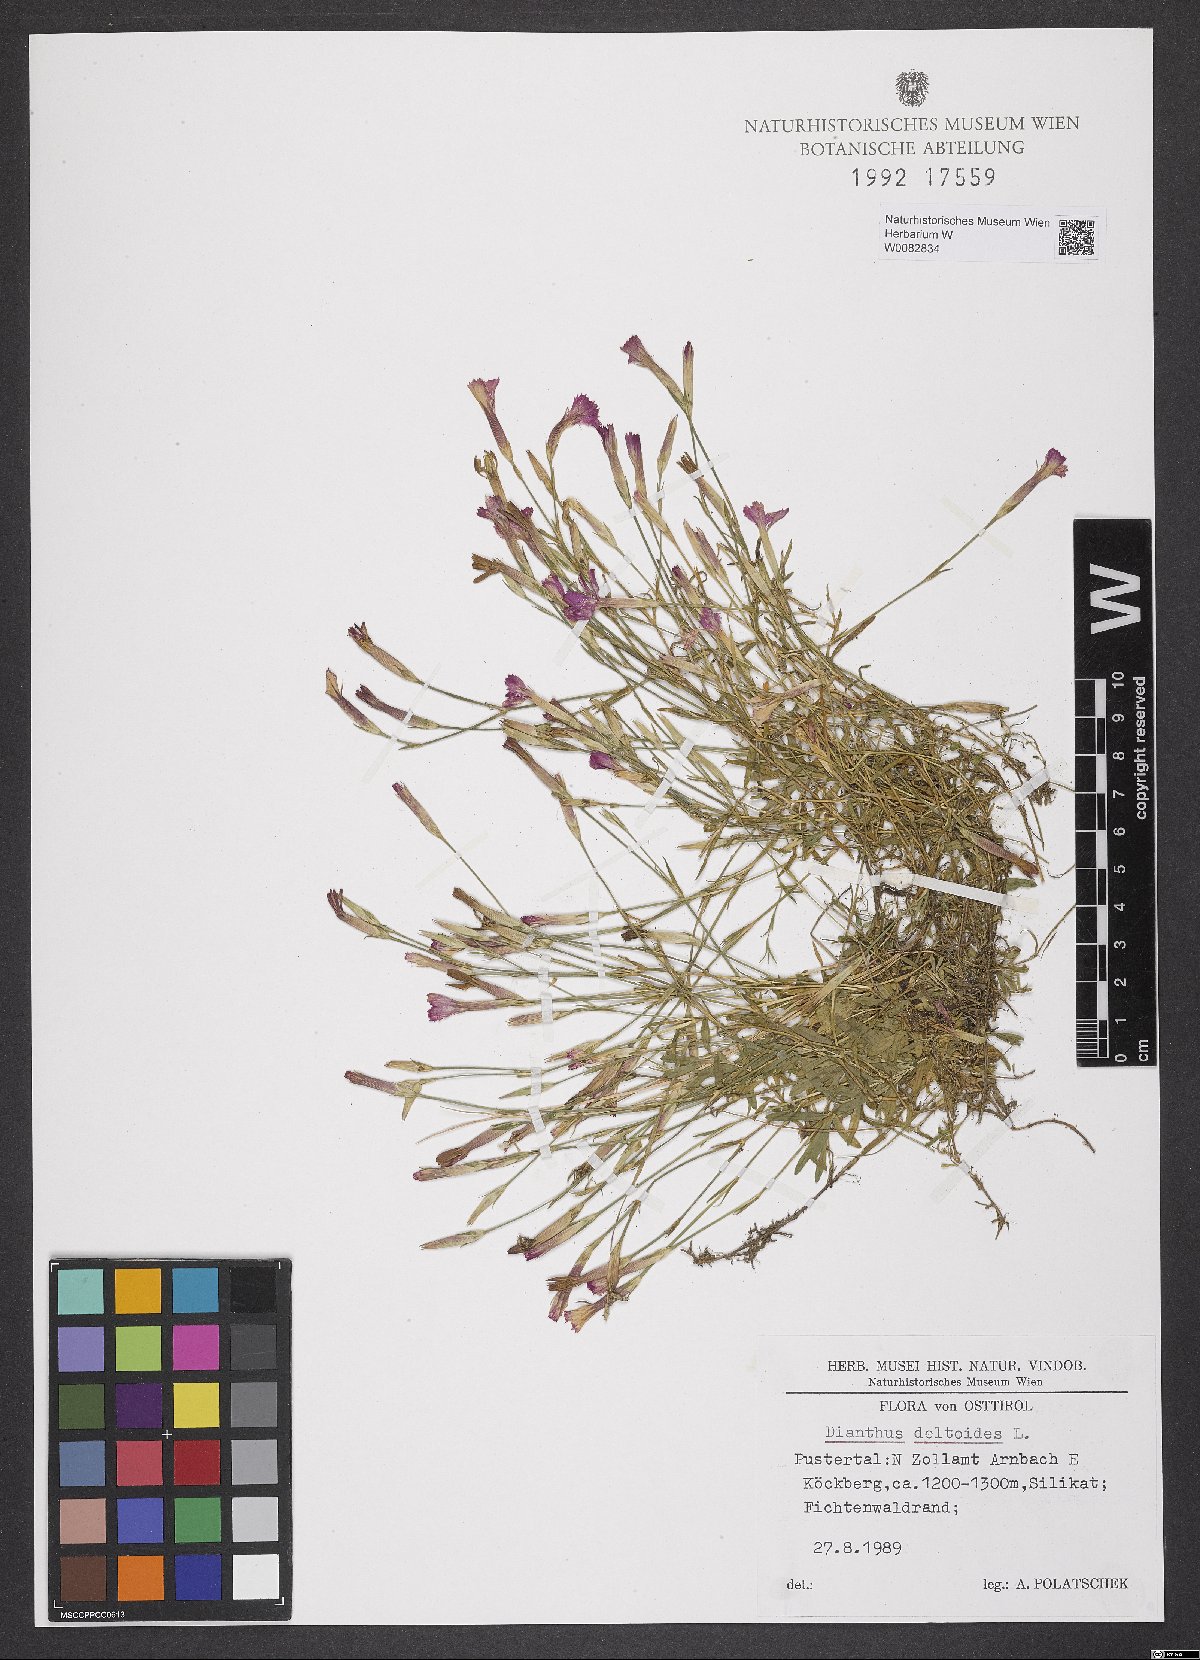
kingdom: Plantae
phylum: Tracheophyta
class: Magnoliopsida
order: Caryophyllales
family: Caryophyllaceae
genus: Dianthus
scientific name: Dianthus deltoides
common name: Maiden pink
